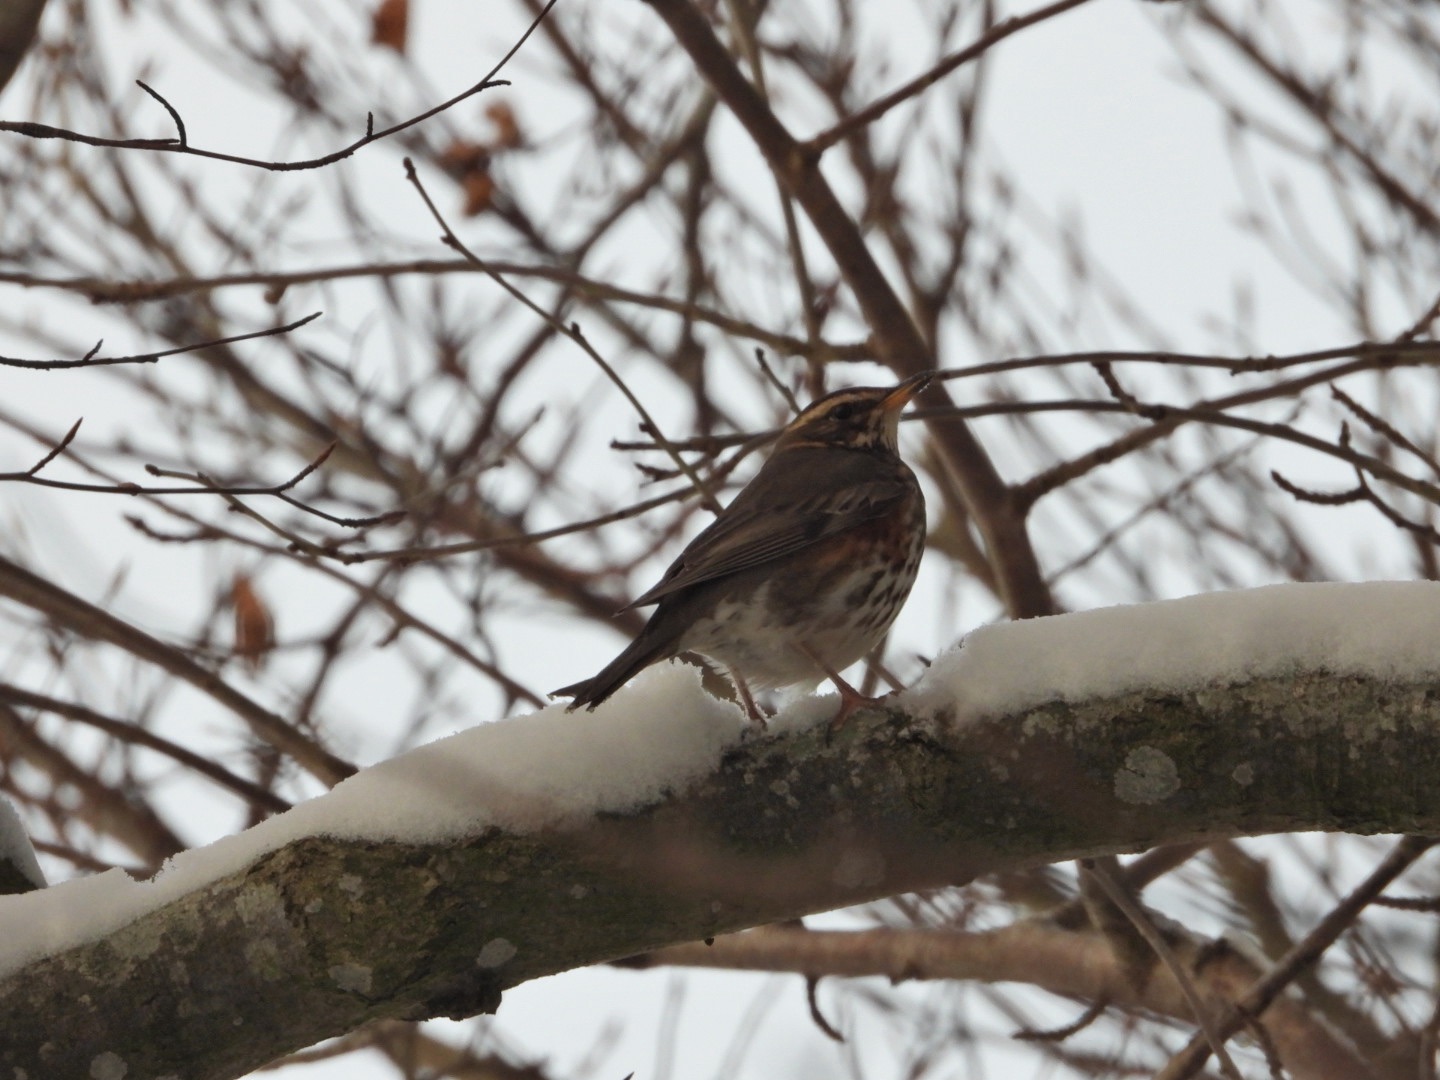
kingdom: Animalia
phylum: Chordata
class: Aves
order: Passeriformes
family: Turdidae
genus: Turdus
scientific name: Turdus iliacus
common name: Vindrossel
